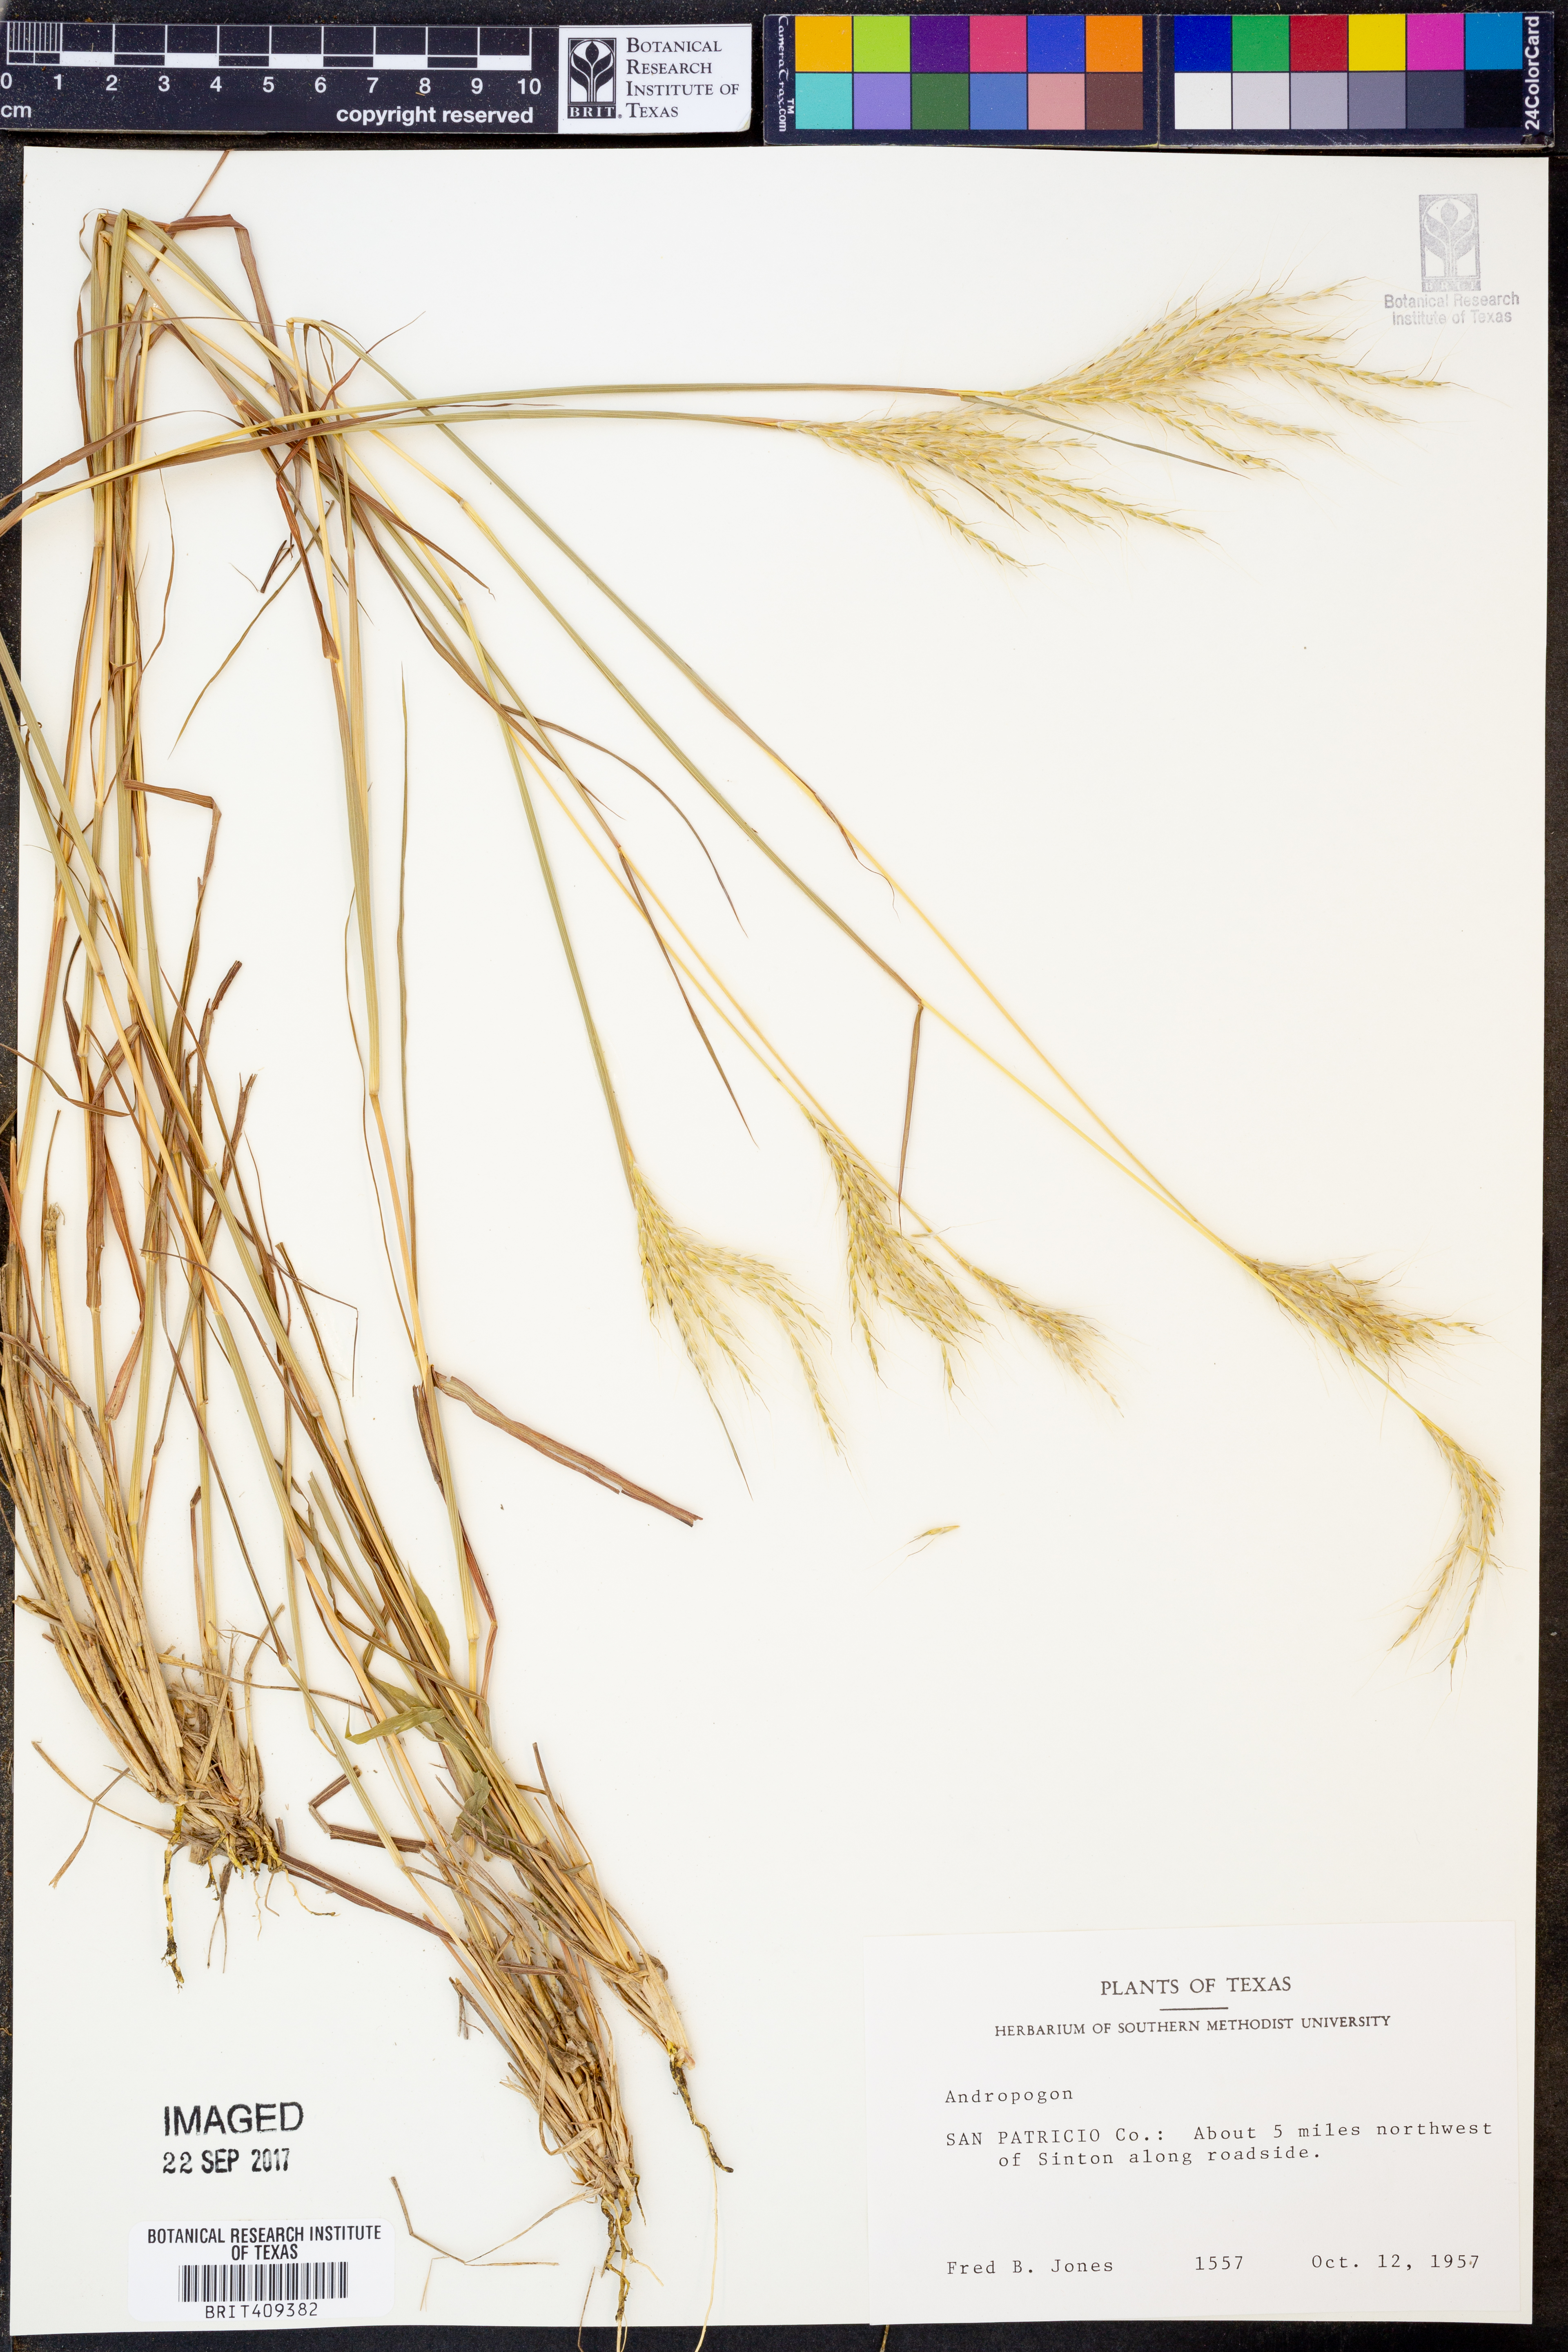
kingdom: Plantae
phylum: Tracheophyta
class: Liliopsida
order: Poales
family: Poaceae
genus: Andropogon
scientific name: Andropogon
